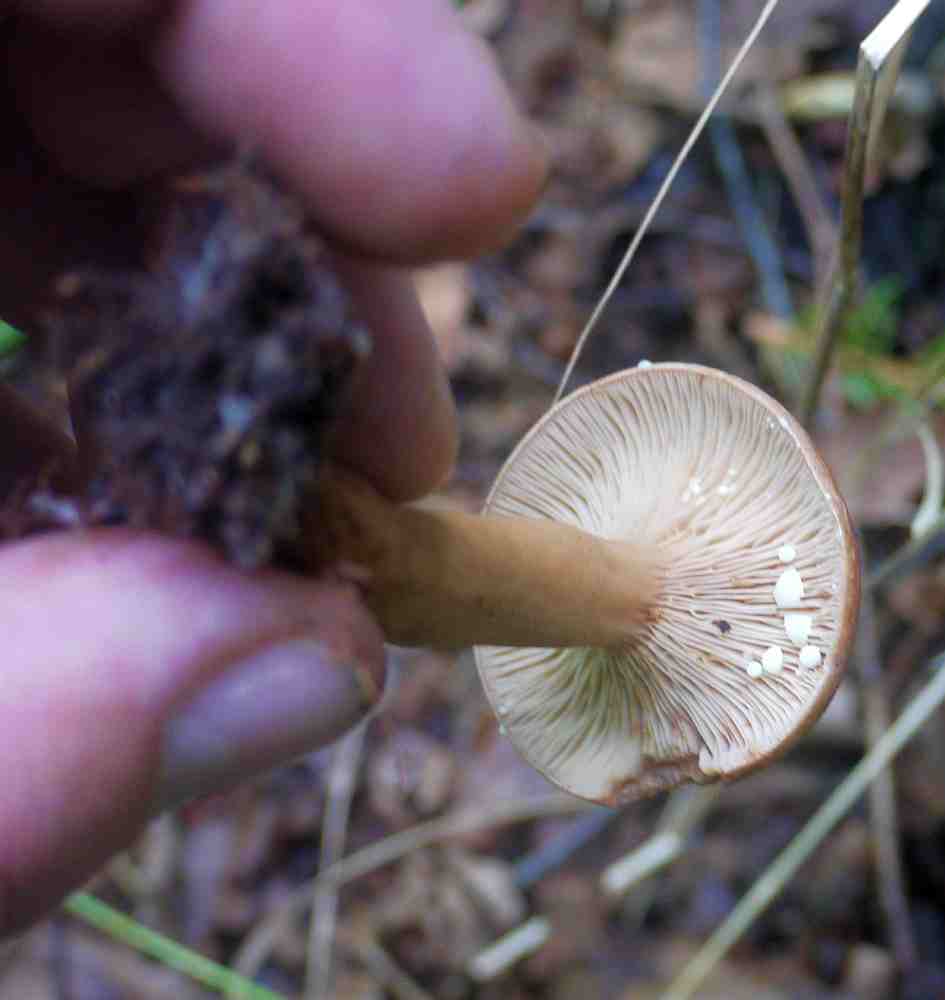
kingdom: Fungi
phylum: Basidiomycota
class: Agaricomycetes
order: Russulales
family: Russulaceae
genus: Lactarius
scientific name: Lactarius chrysorrheus
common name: svovlmælket mælkehat
